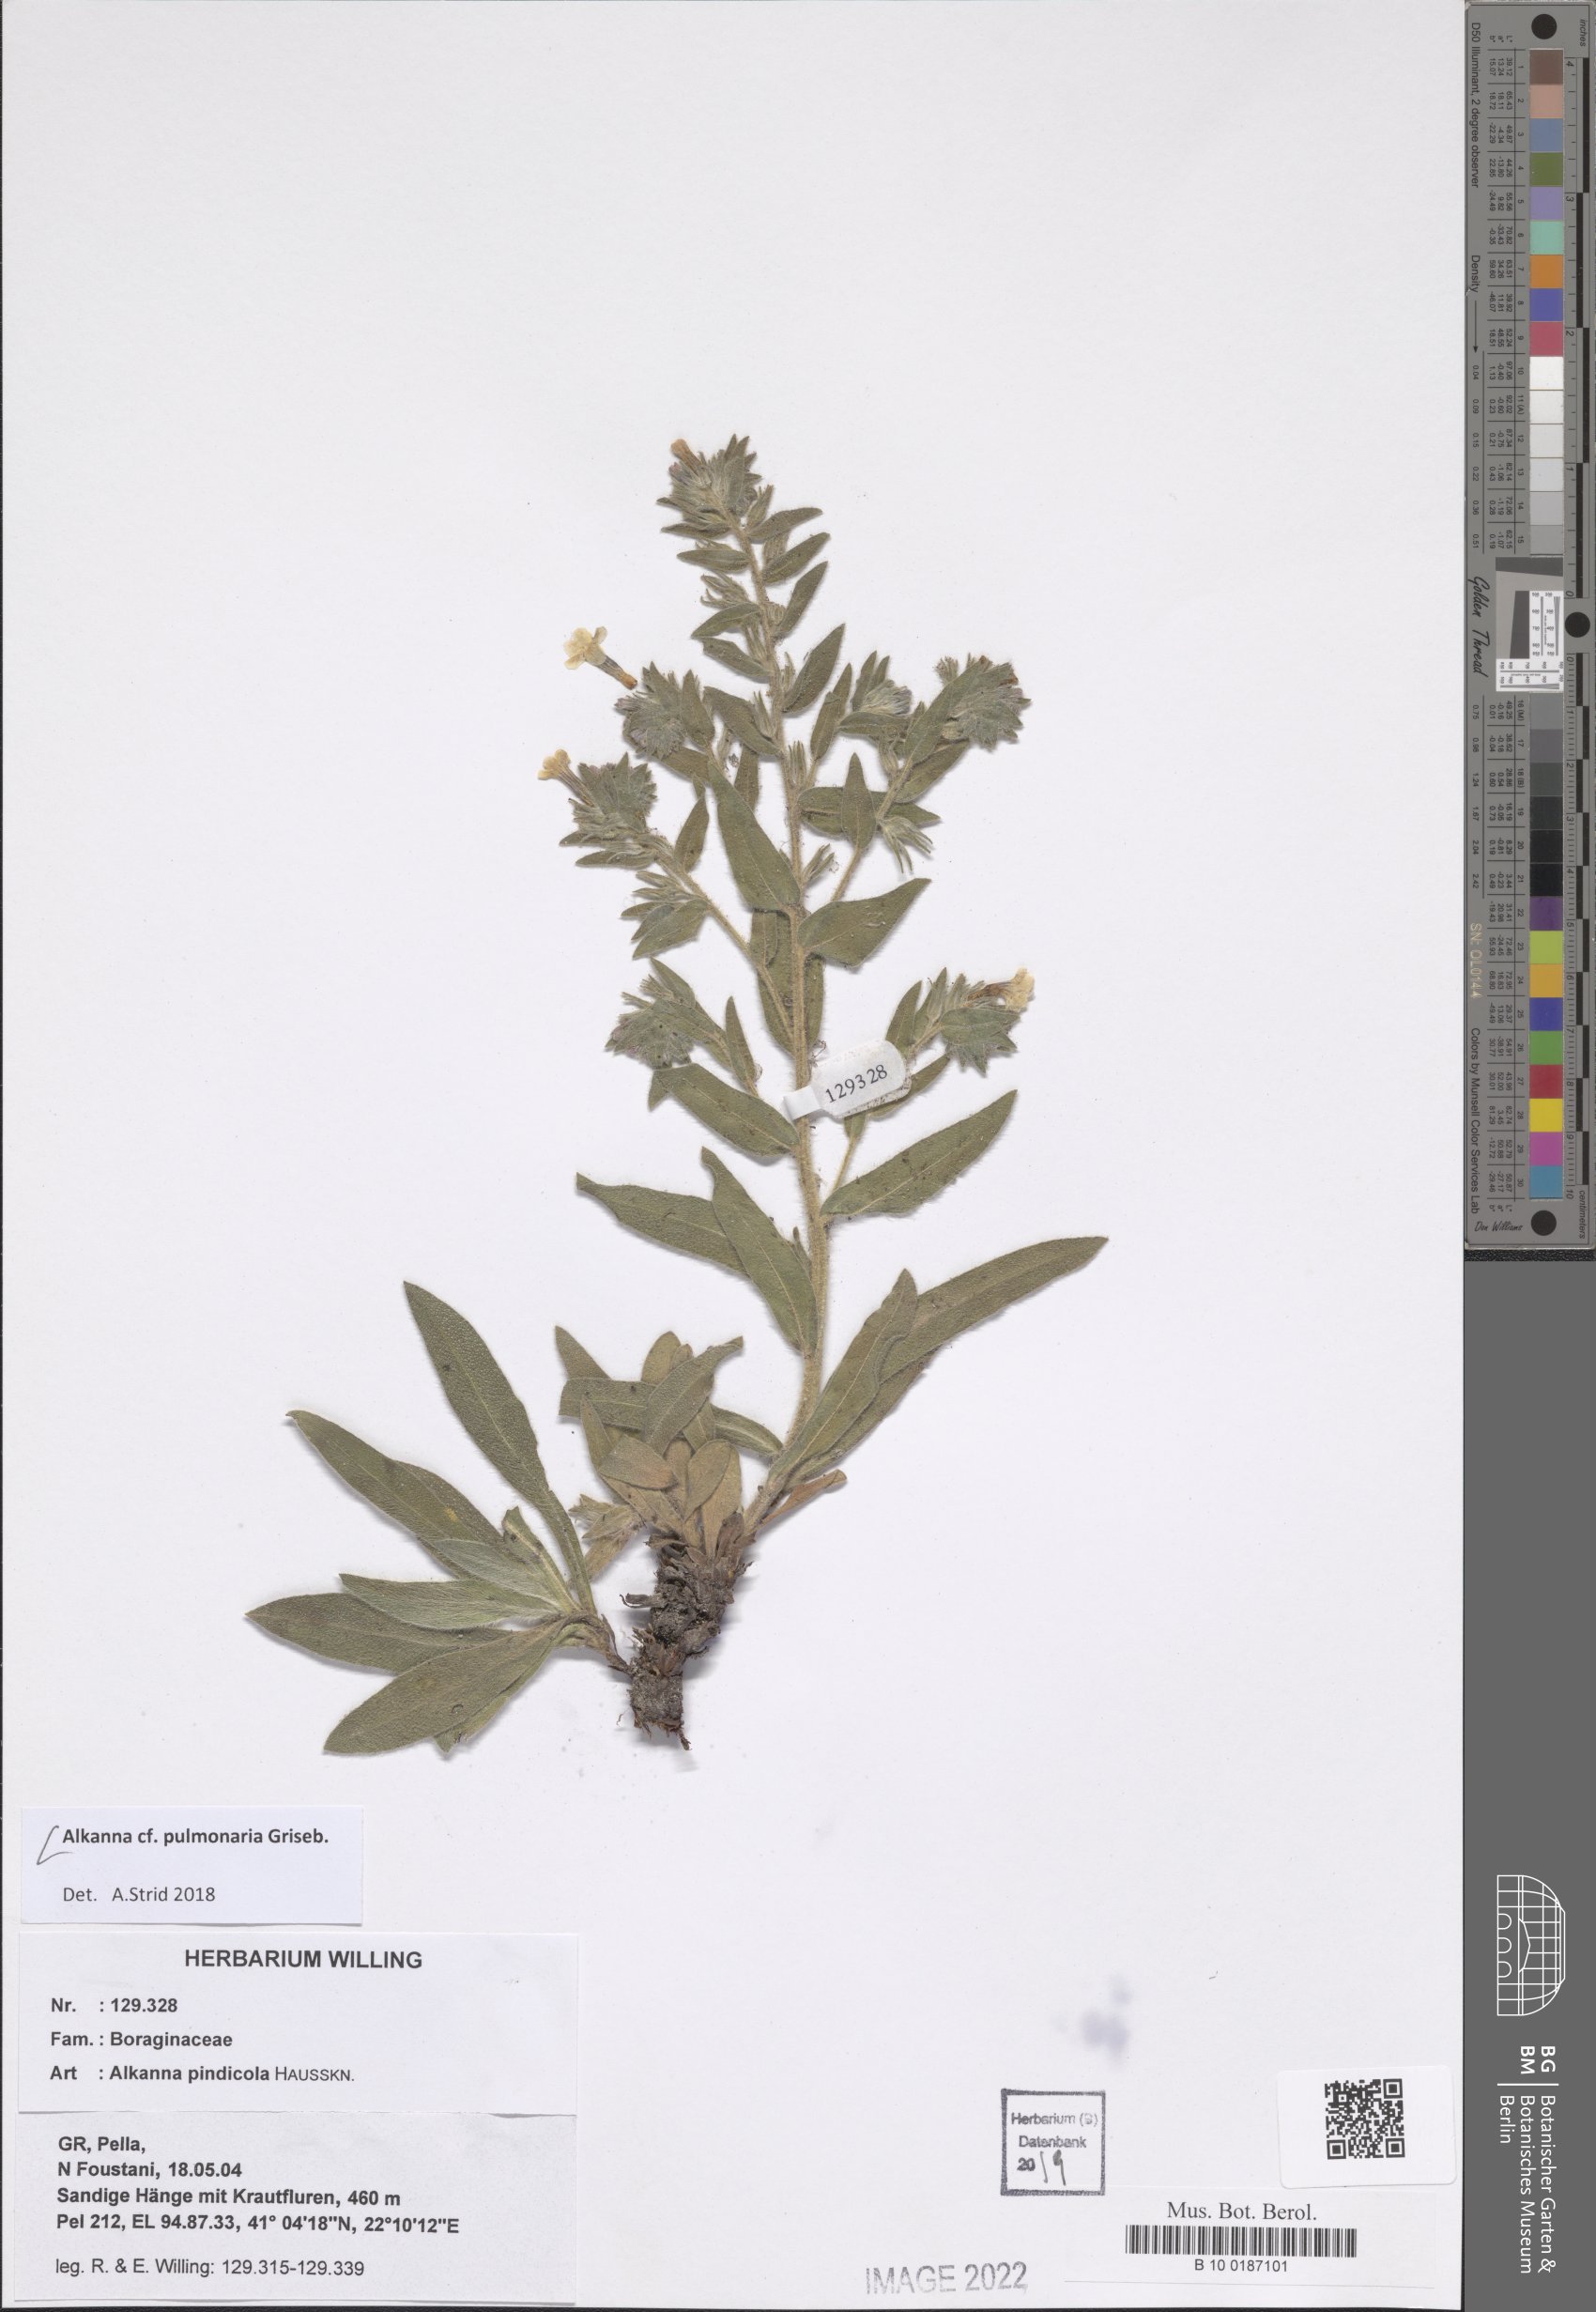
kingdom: Plantae
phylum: Tracheophyta
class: Magnoliopsida
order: Boraginales
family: Boraginaceae
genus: Alkanna
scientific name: Alkanna pulmonaria
